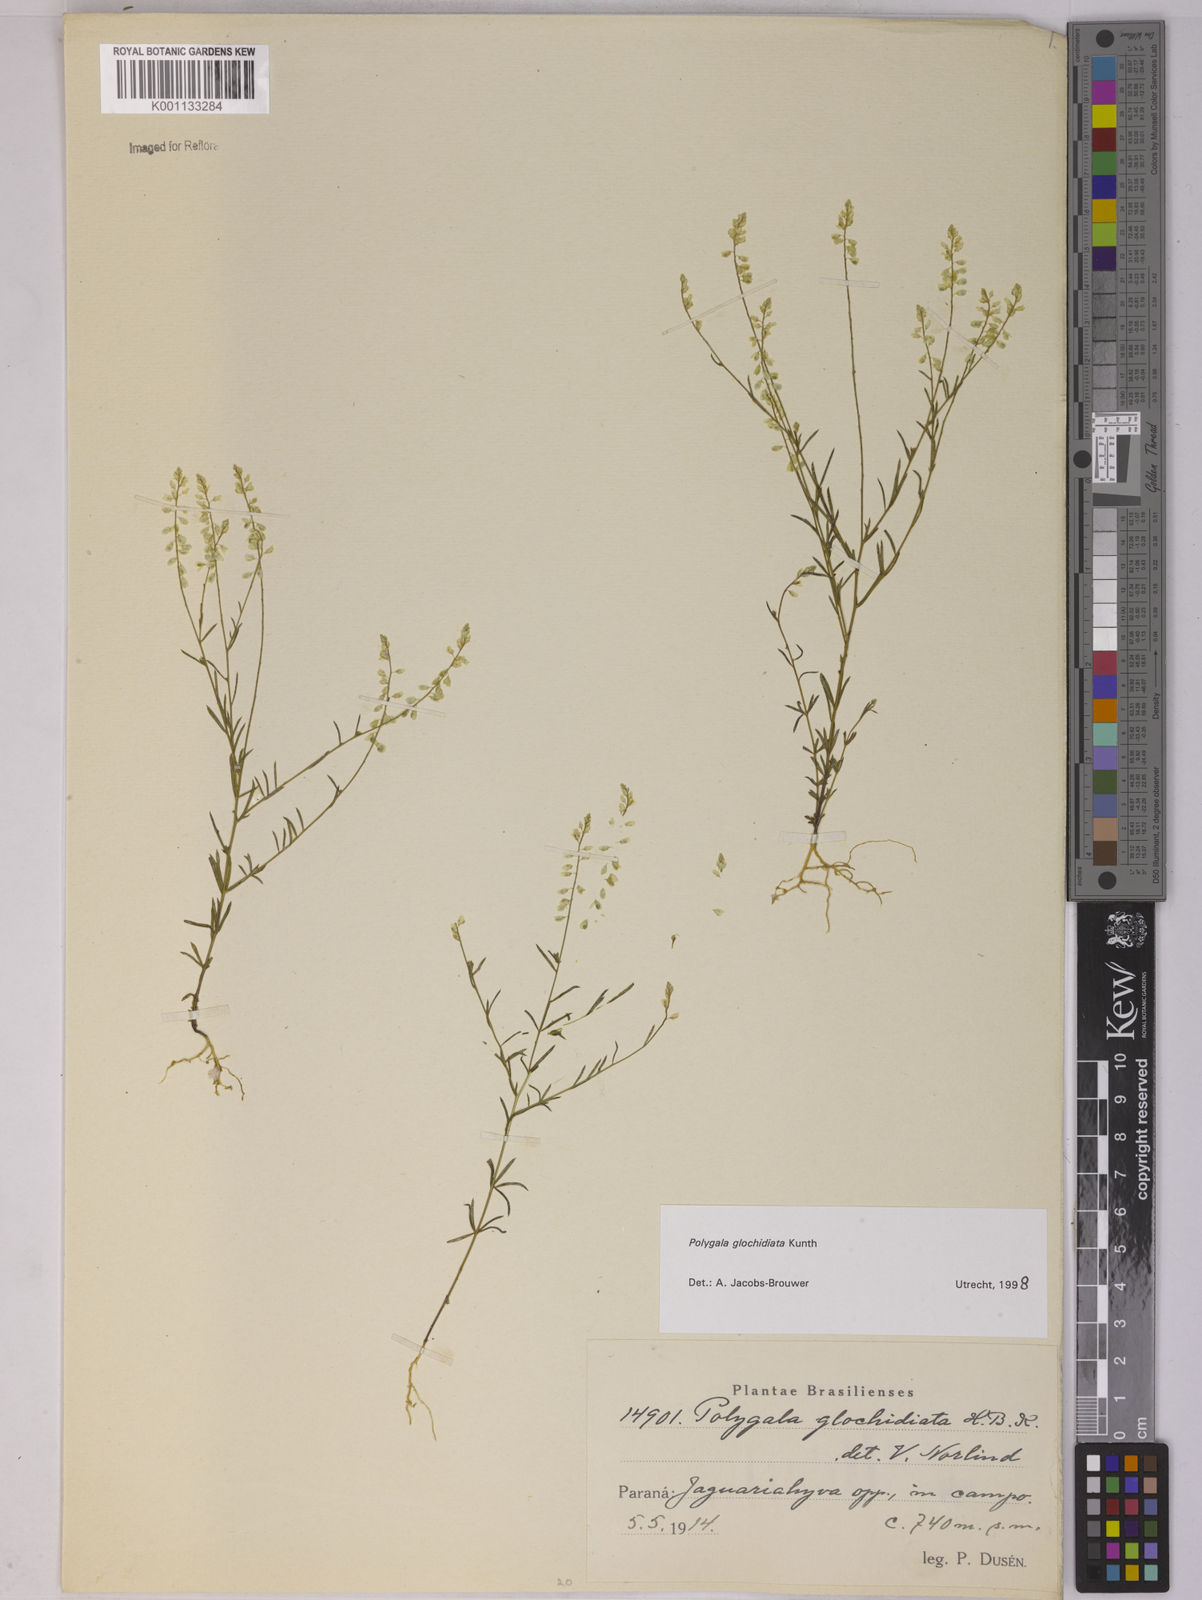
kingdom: Plantae
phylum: Tracheophyta
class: Magnoliopsida
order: Fabales
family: Polygalaceae
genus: Polygala
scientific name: Polygala glochidiata
